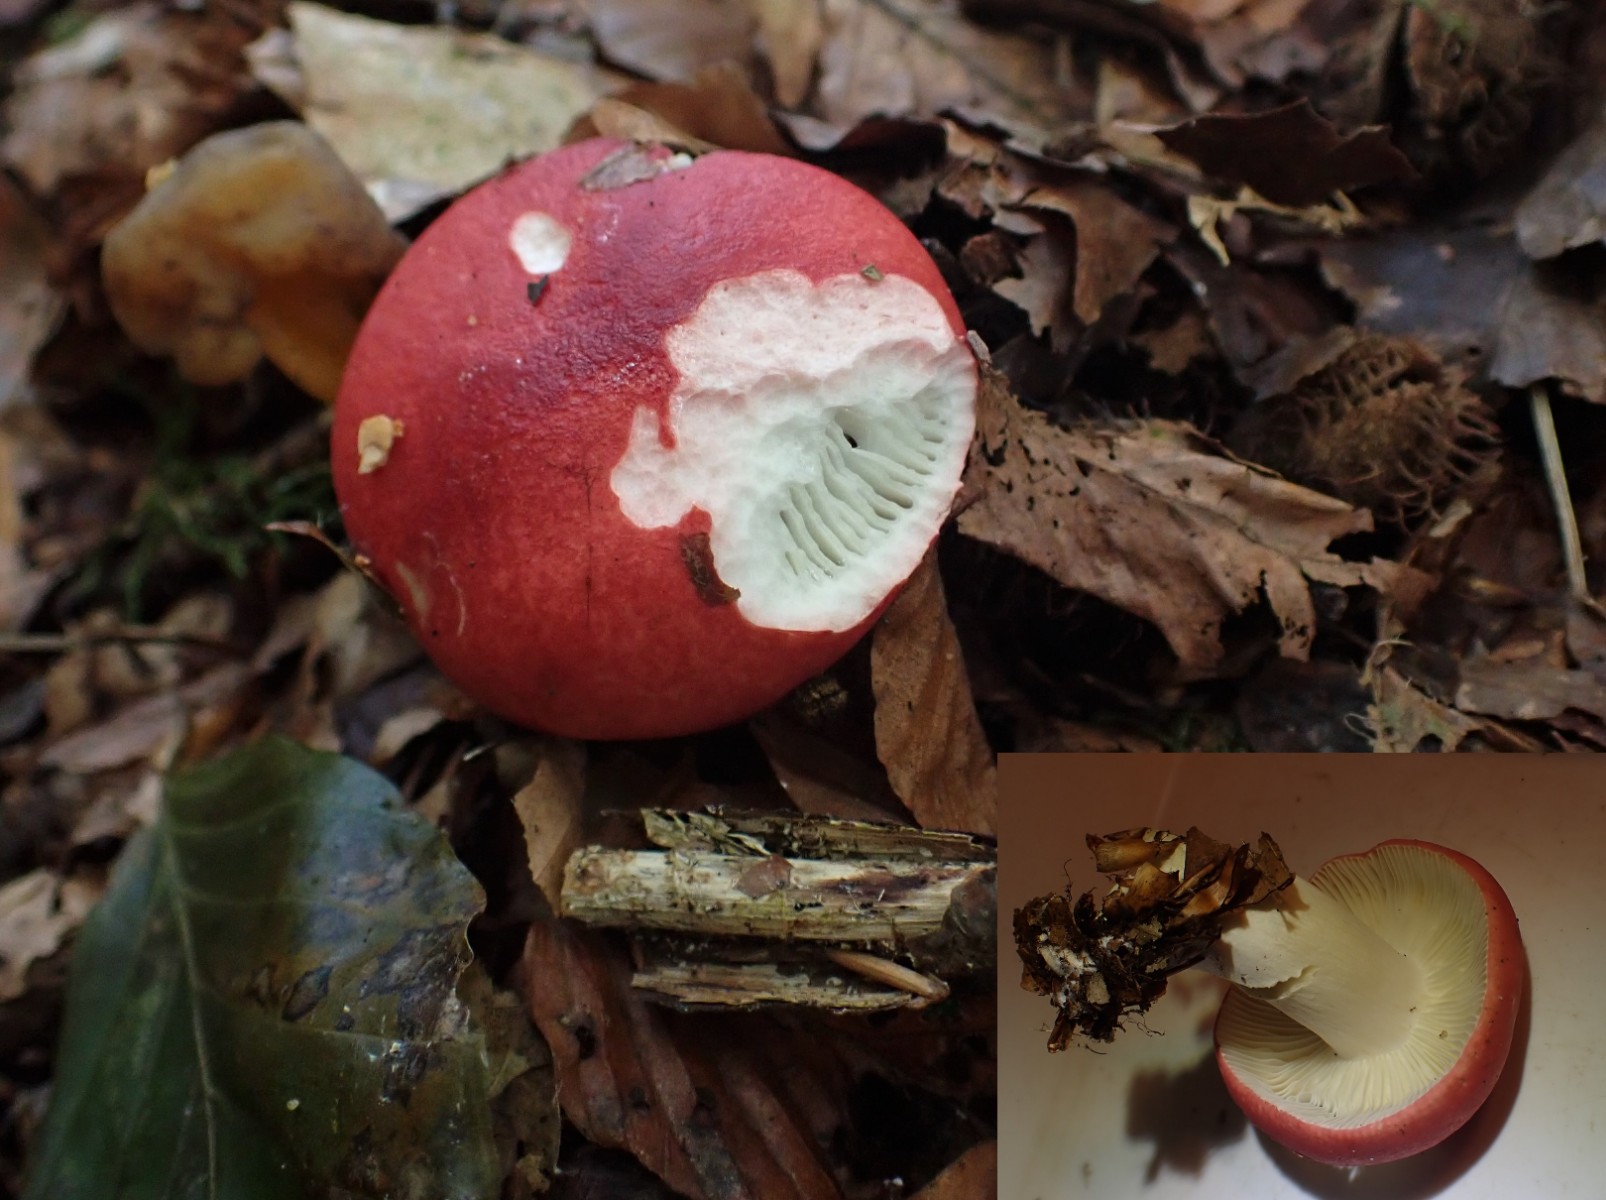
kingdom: Fungi
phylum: Basidiomycota
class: Agaricomycetes
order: Russulales
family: Russulaceae
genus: Russula
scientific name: Russula nobilis
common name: lille gift-skørhat
